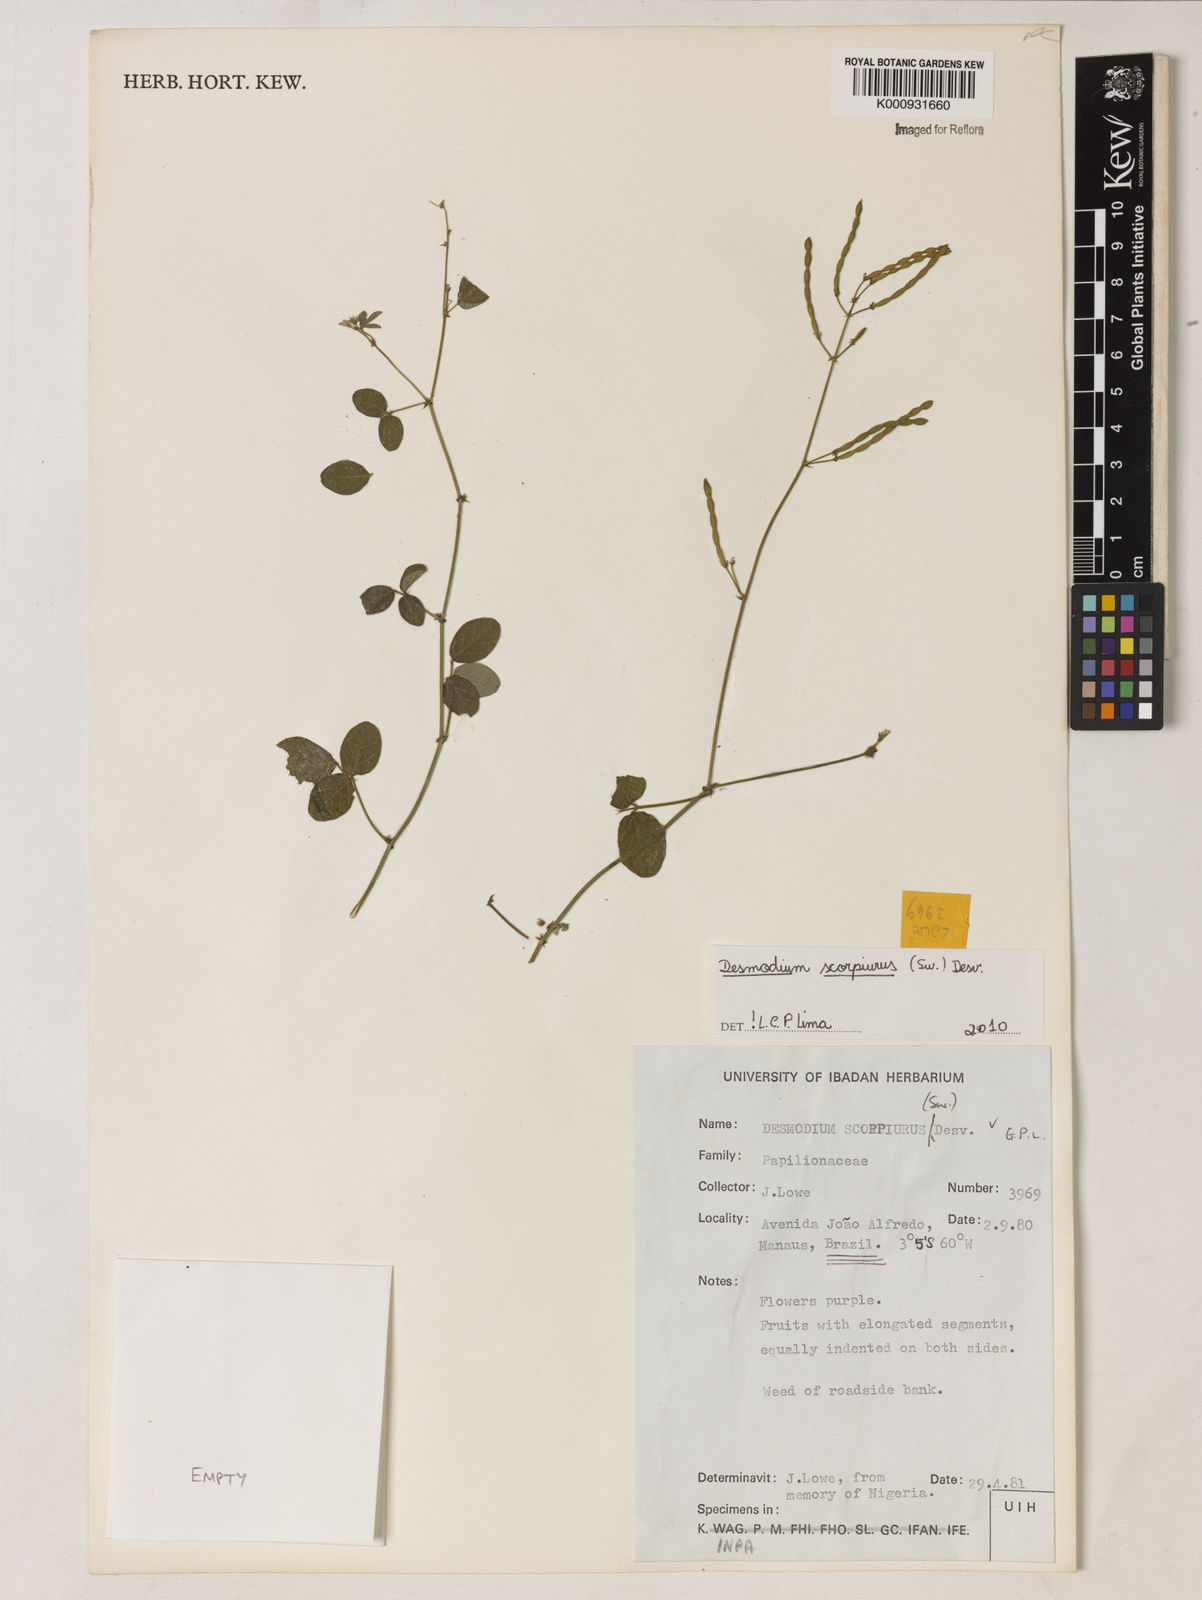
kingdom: Plantae
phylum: Tracheophyta
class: Magnoliopsida
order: Fabales
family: Fabaceae
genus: Desmodium
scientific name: Desmodium
